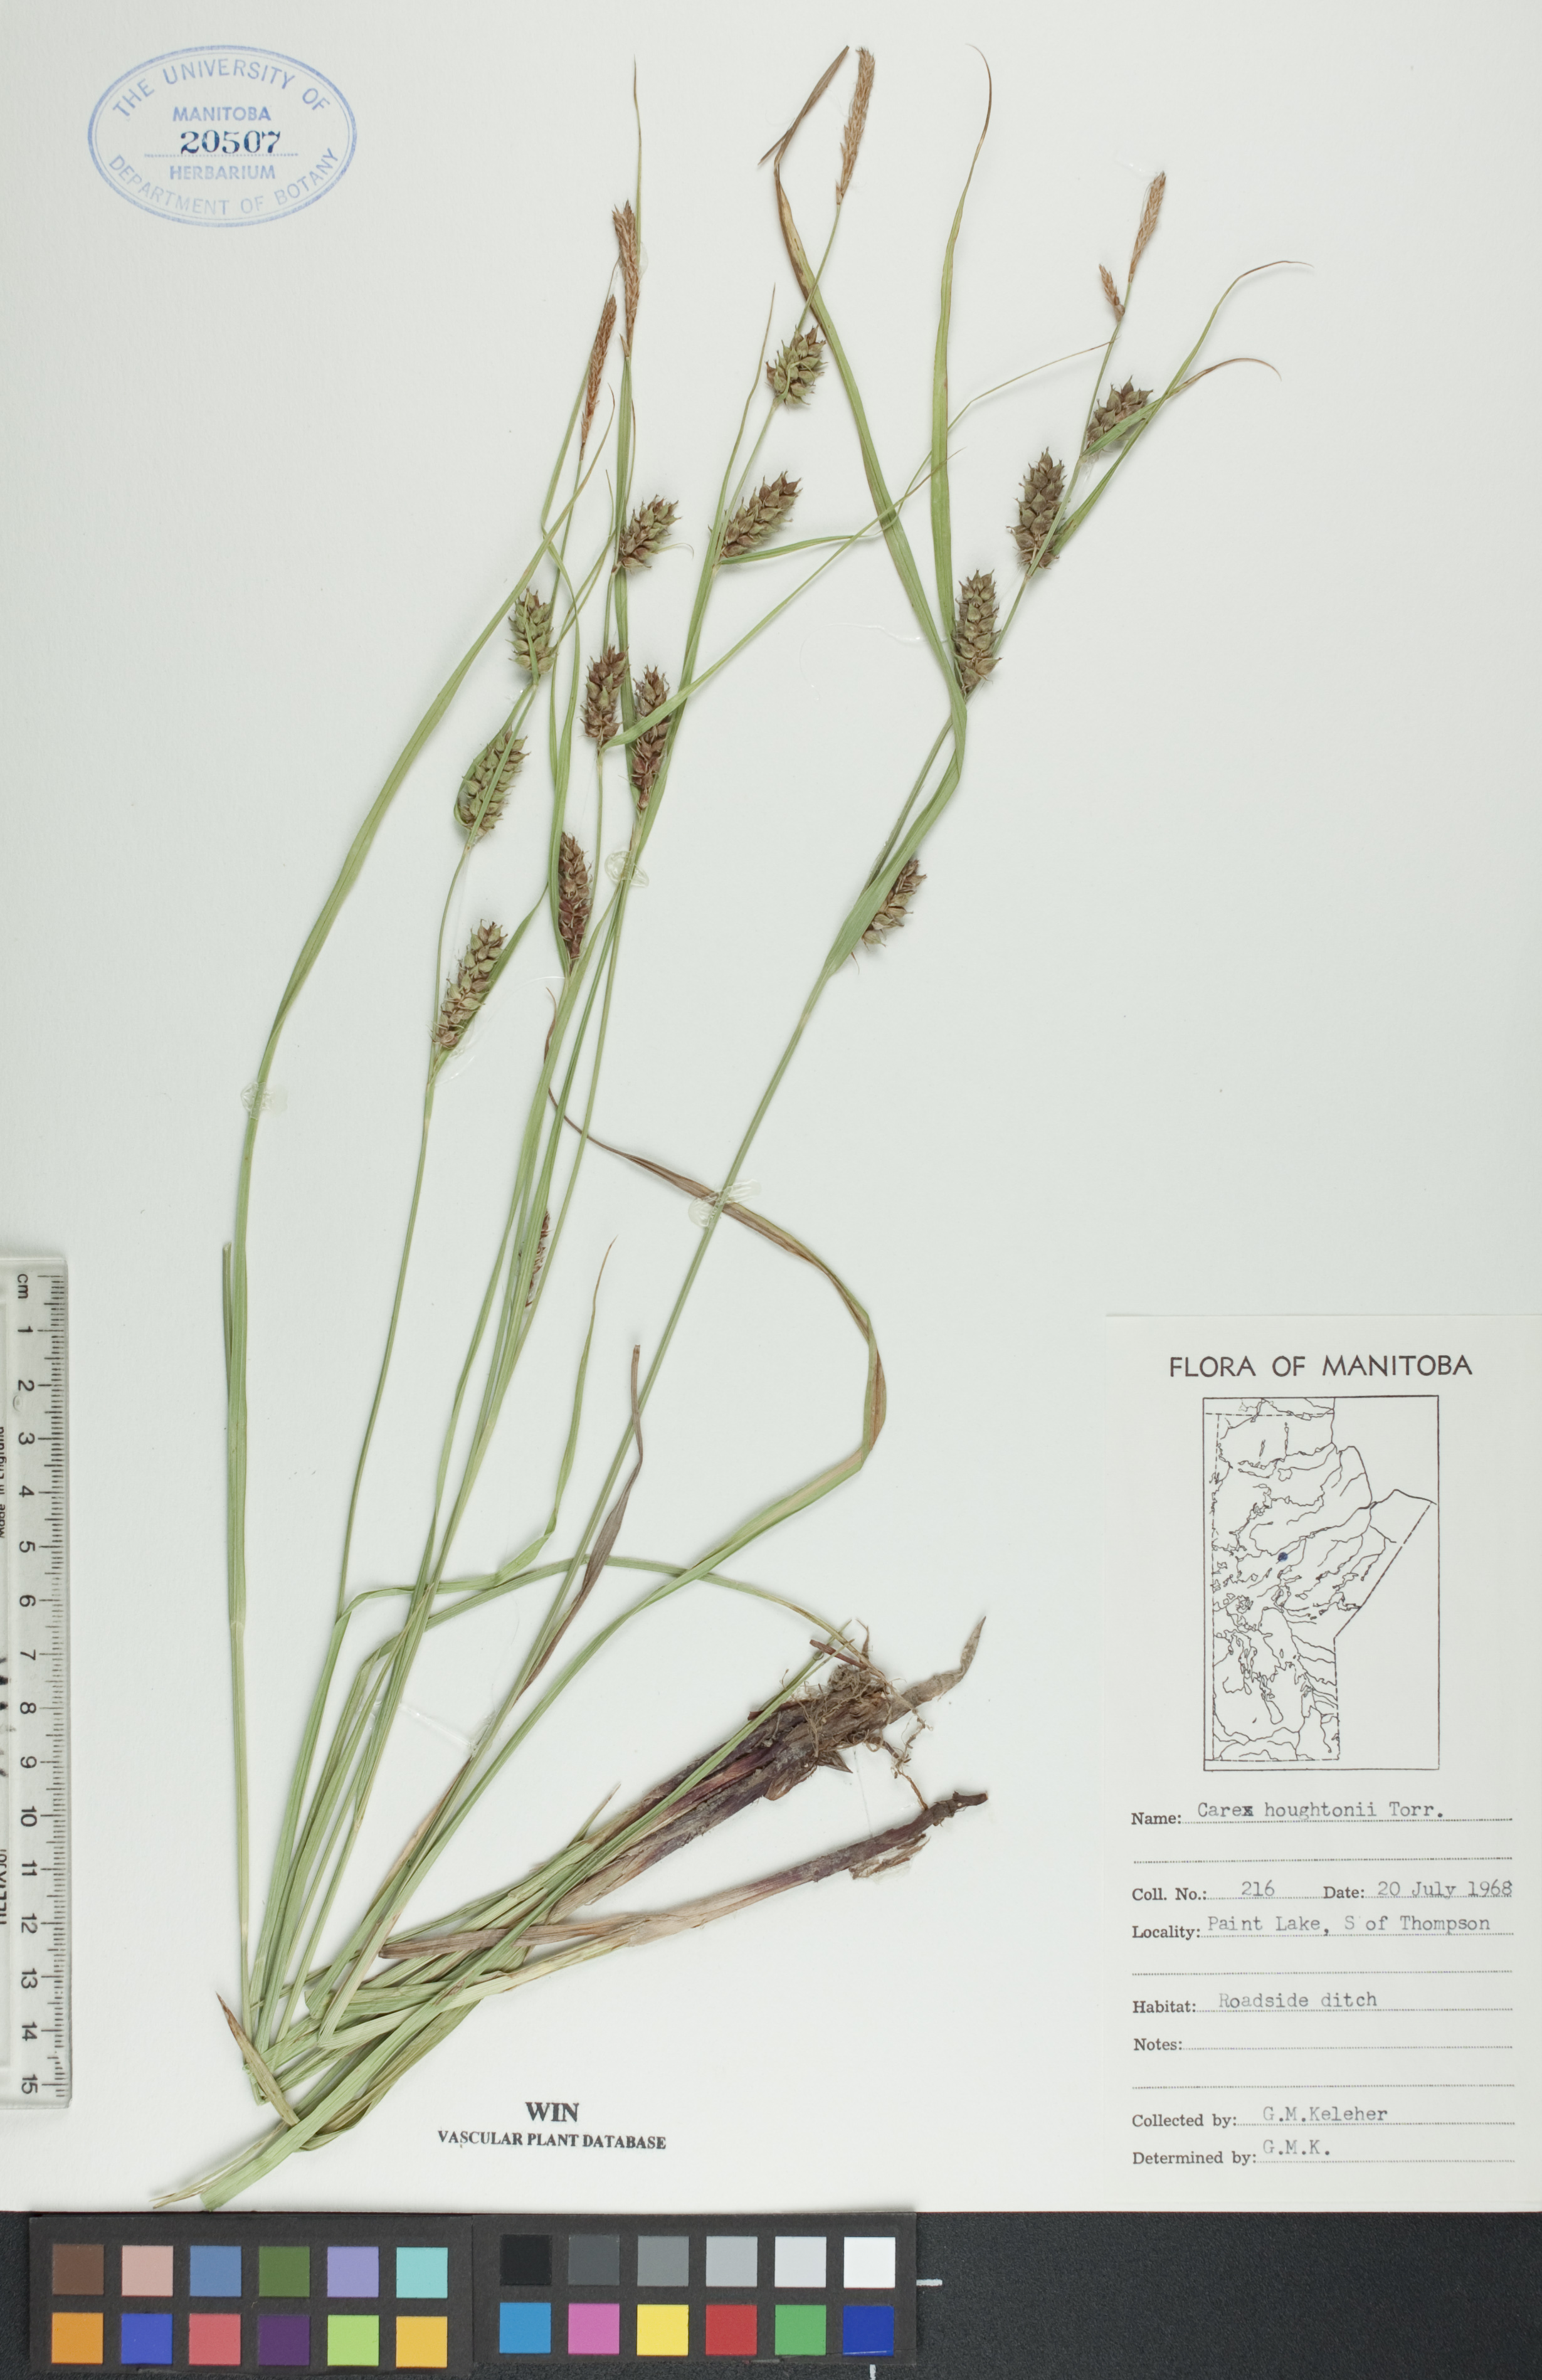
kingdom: Plantae
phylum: Tracheophyta
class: Liliopsida
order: Poales
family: Cyperaceae
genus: Carex
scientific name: Carex houghtoniana
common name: Houghton's sedge
